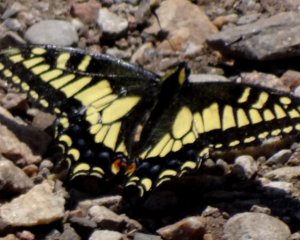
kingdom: Animalia
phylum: Arthropoda
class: Insecta
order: Lepidoptera
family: Papilionidae
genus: Papilio
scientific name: Papilio zelicaon
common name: Anise Swallowtail
